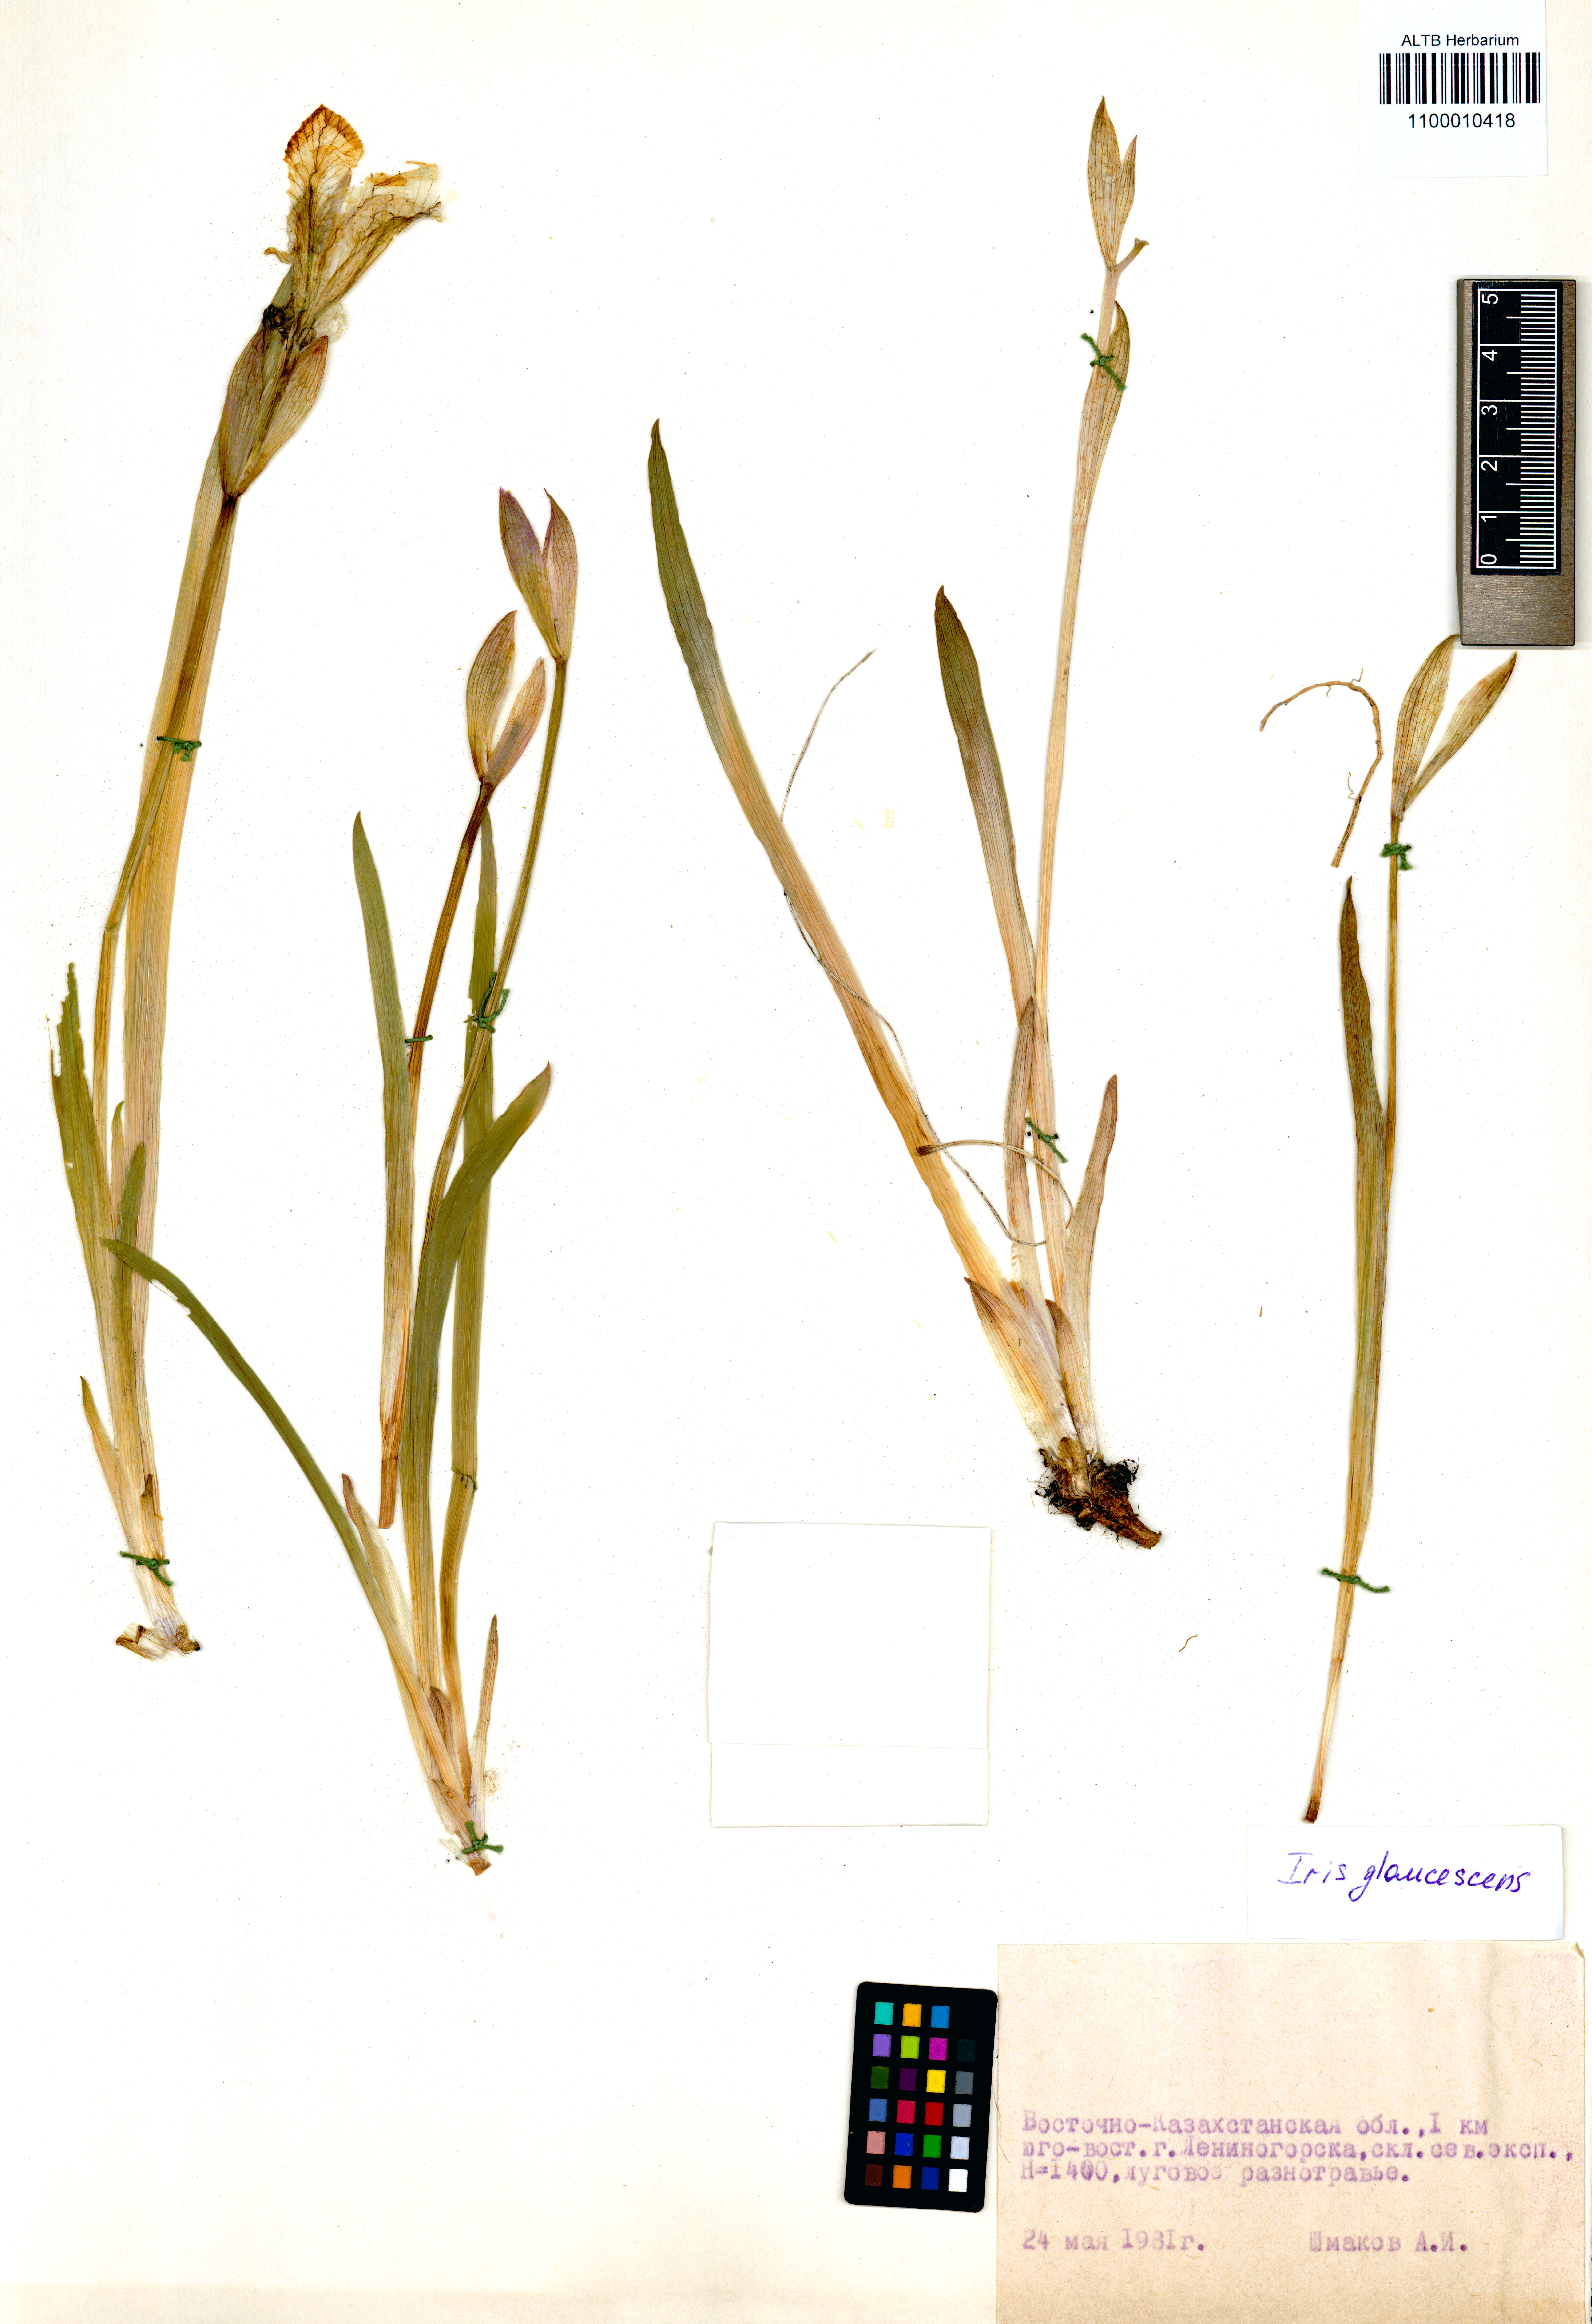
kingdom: Plantae
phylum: Tracheophyta
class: Liliopsida
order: Asparagales
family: Iridaceae
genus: Iris
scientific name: Iris glaucescens
